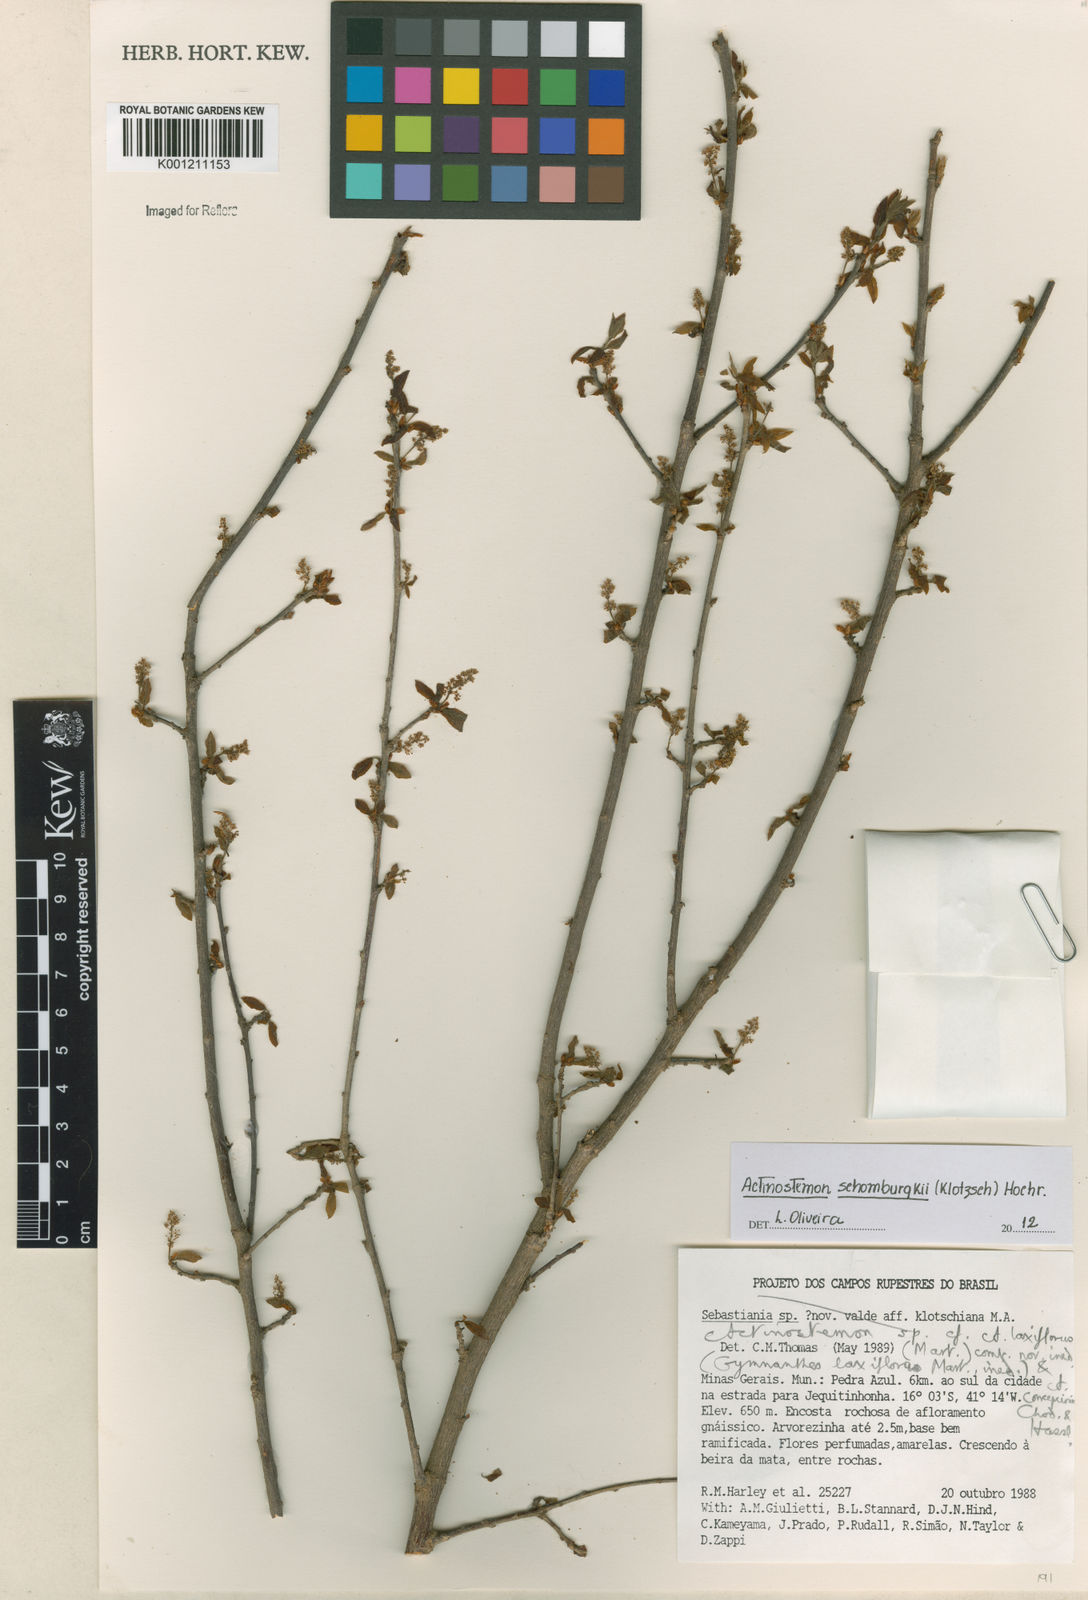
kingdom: Plantae
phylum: Tracheophyta
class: Magnoliopsida
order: Malpighiales
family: Euphorbiaceae
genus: Actinostemon
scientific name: Actinostemon schomburgkii
